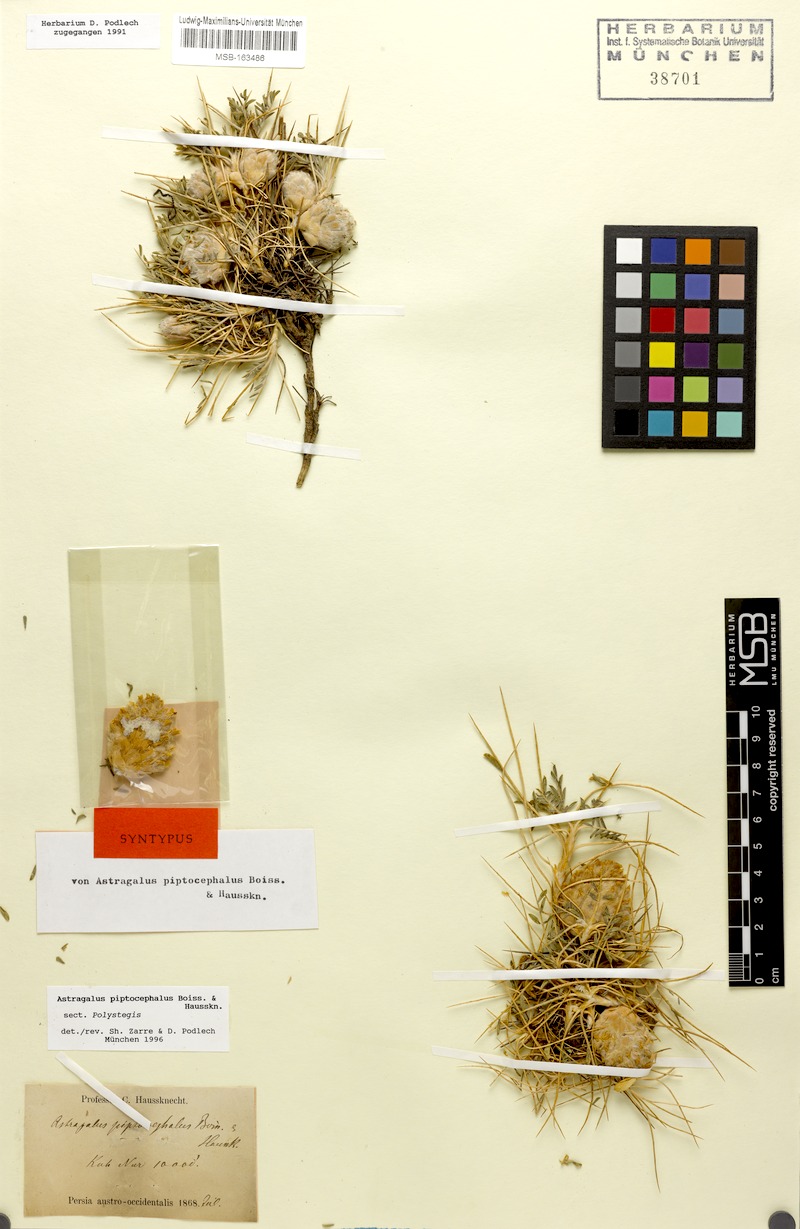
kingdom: Plantae
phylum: Tracheophyta
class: Magnoliopsida
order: Fabales
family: Fabaceae
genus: Astragalus
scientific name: Astragalus piptocephalus
